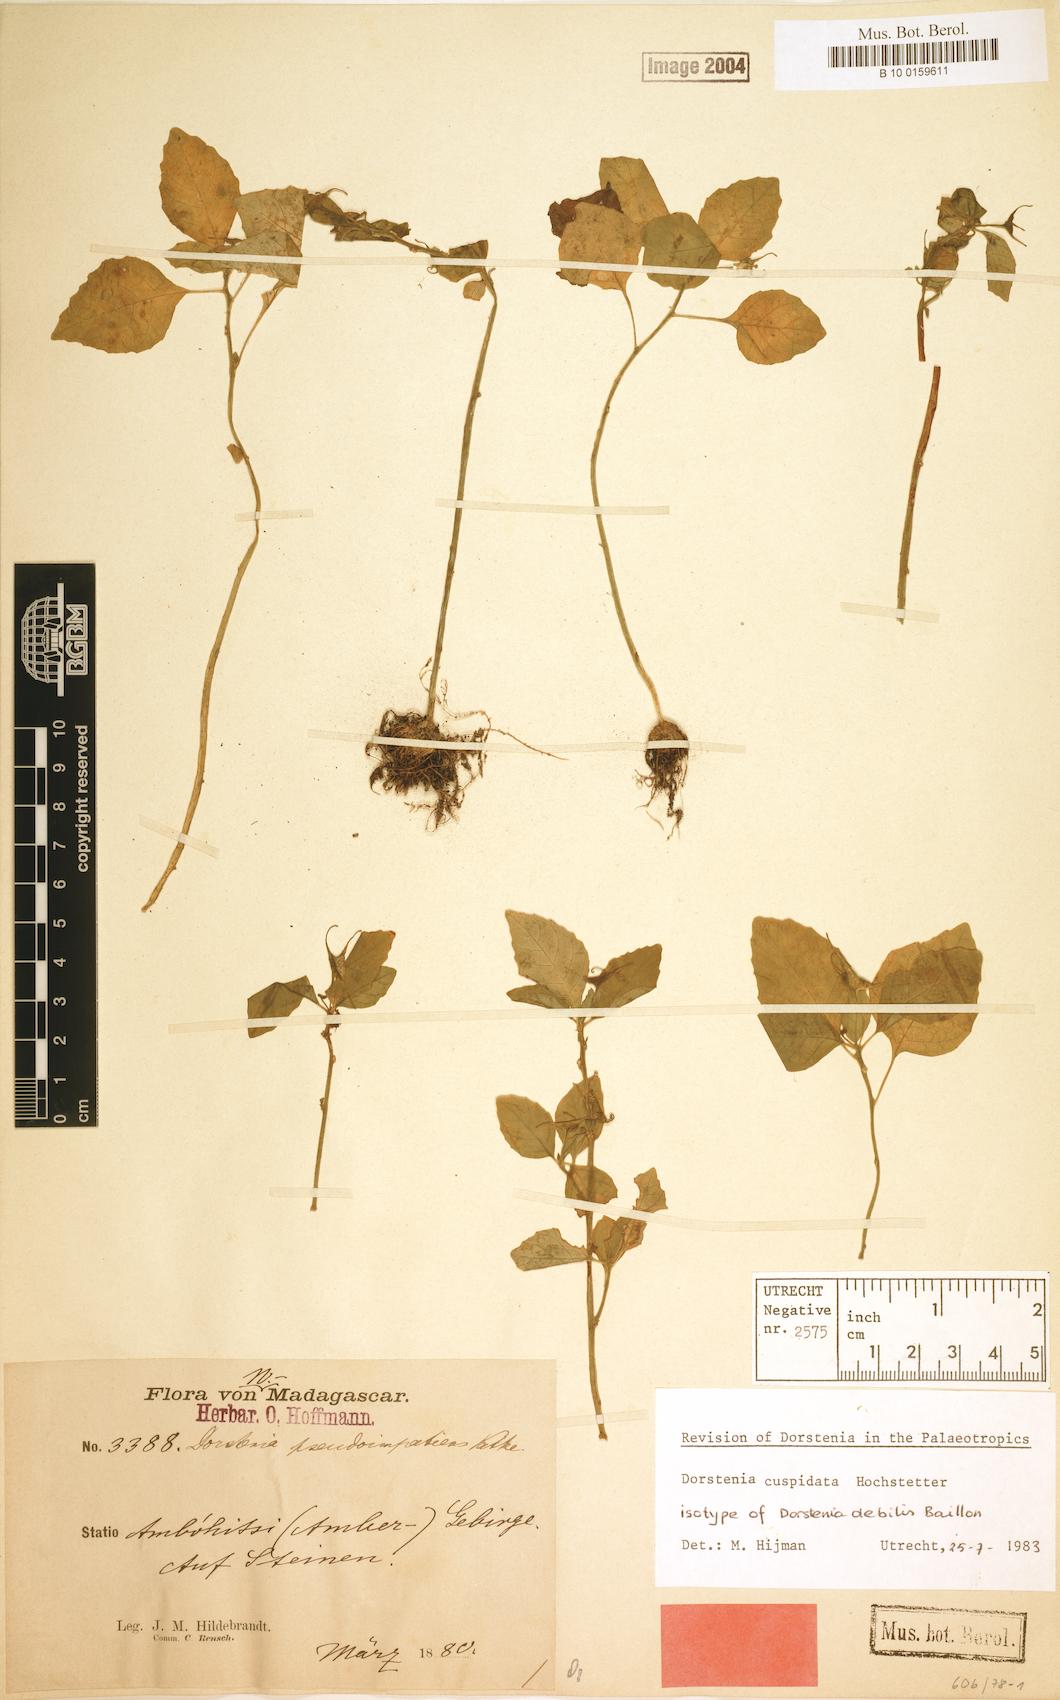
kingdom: Plantae
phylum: Tracheophyta
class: Magnoliopsida
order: Rosales
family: Moraceae
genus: Dorstenia
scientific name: Dorstenia cuspidata
